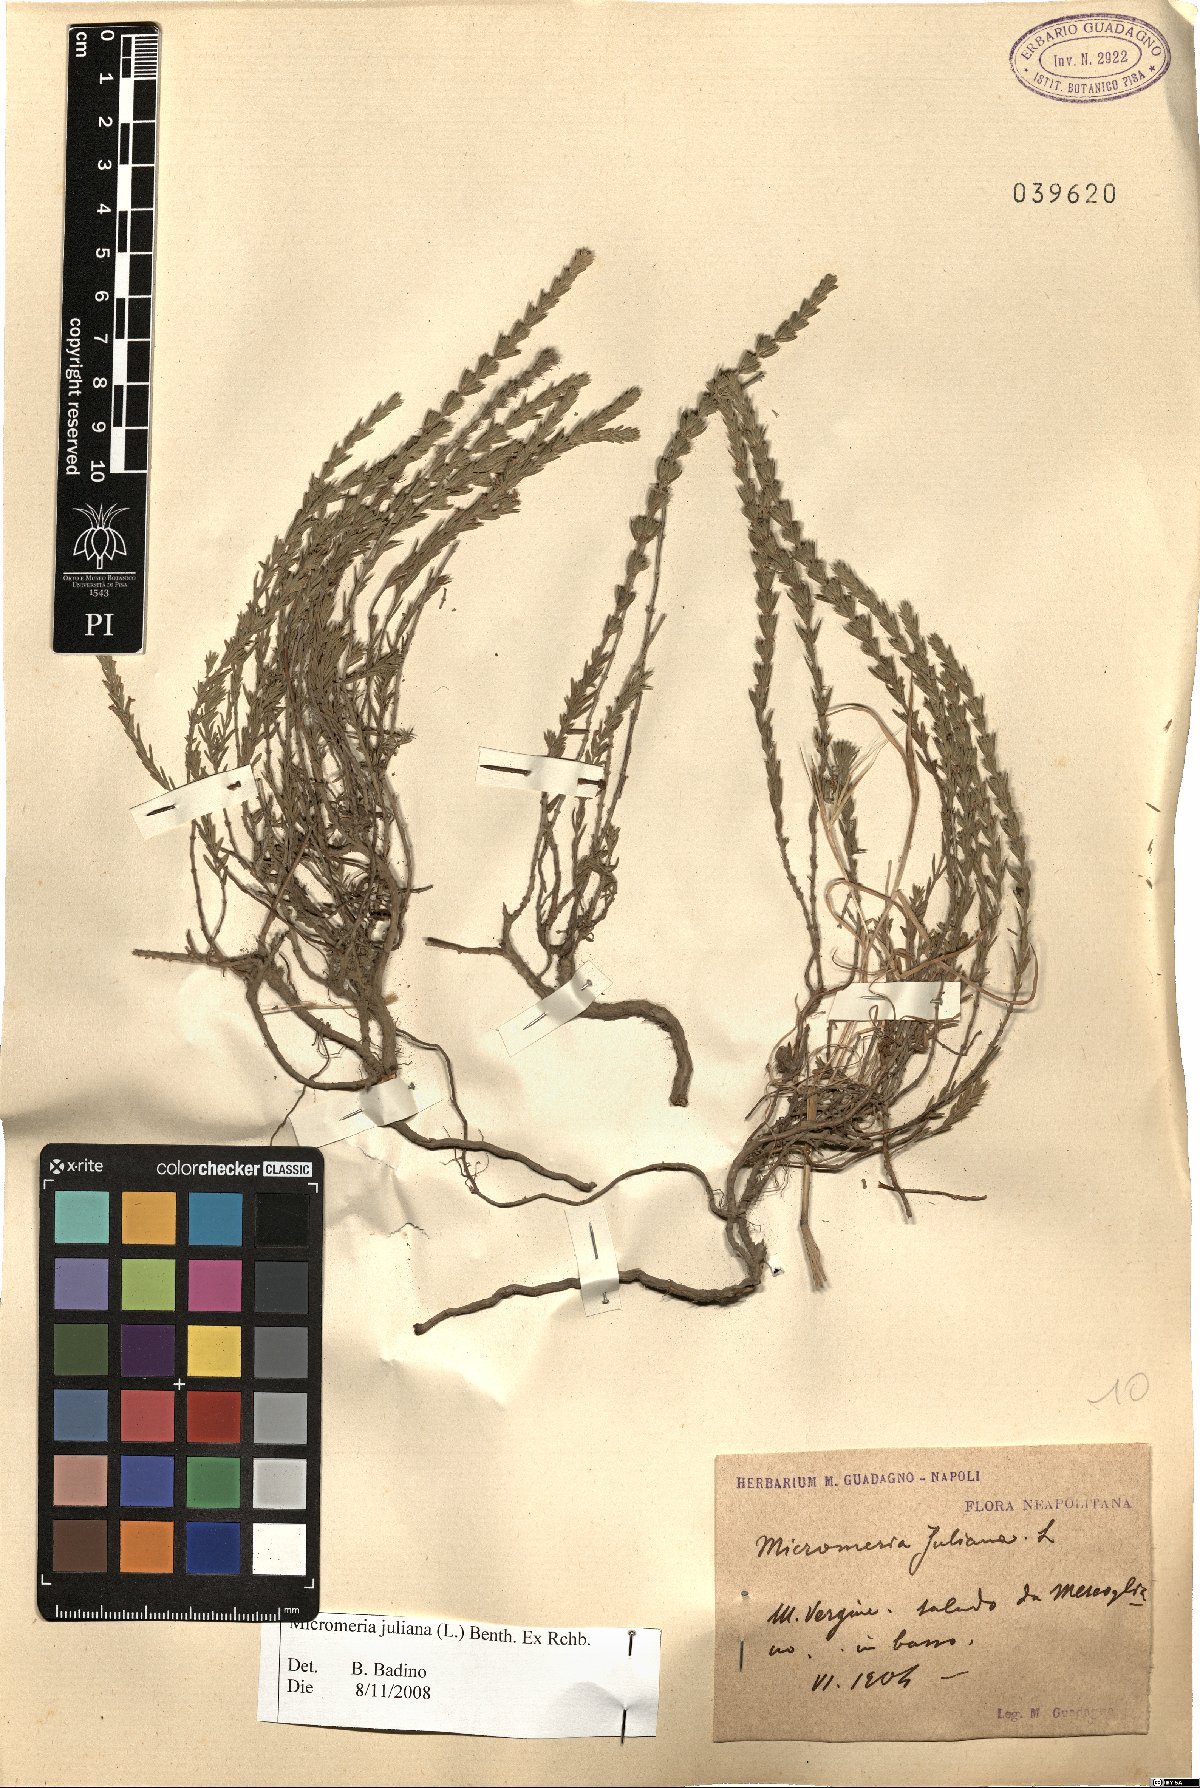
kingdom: Plantae
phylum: Tracheophyta
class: Magnoliopsida
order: Lamiales
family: Lamiaceae
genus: Micromeria
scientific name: Micromeria juliana
